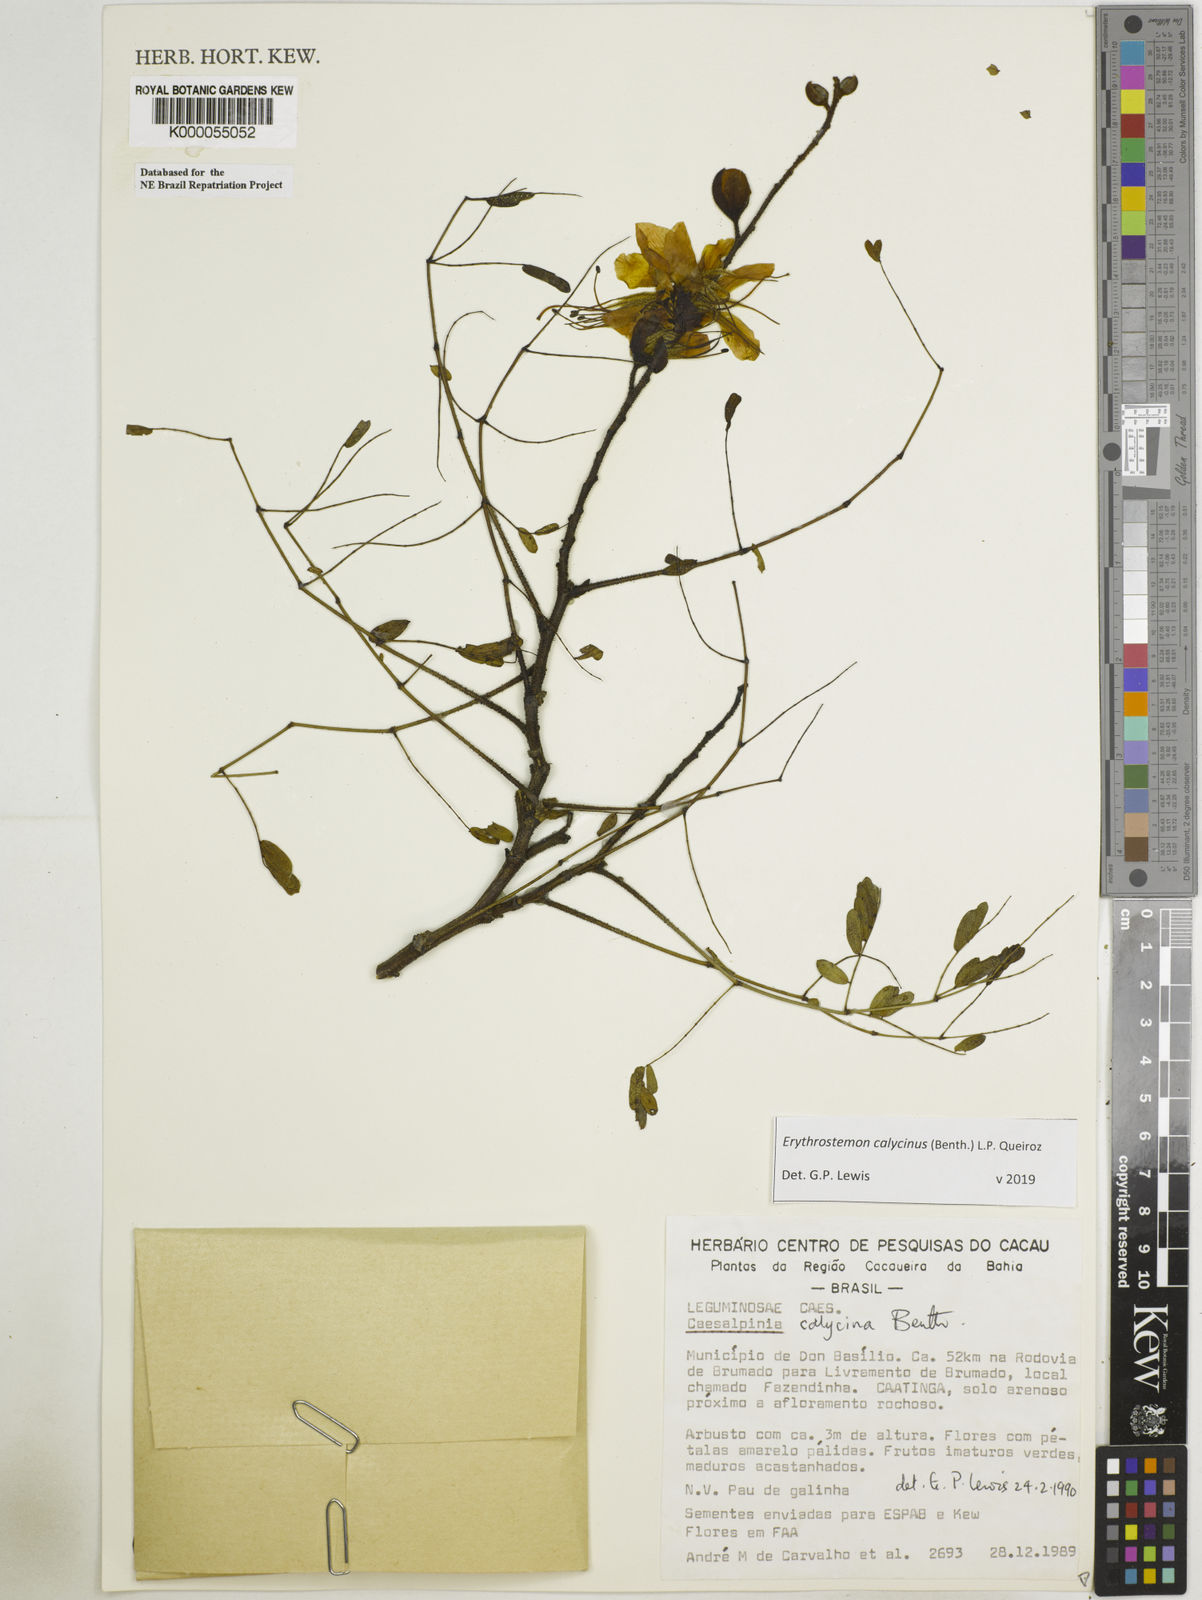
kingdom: Plantae
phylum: Tracheophyta
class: Magnoliopsida
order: Fabales
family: Fabaceae
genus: Erythrostemon
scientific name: Erythrostemon calycinus
